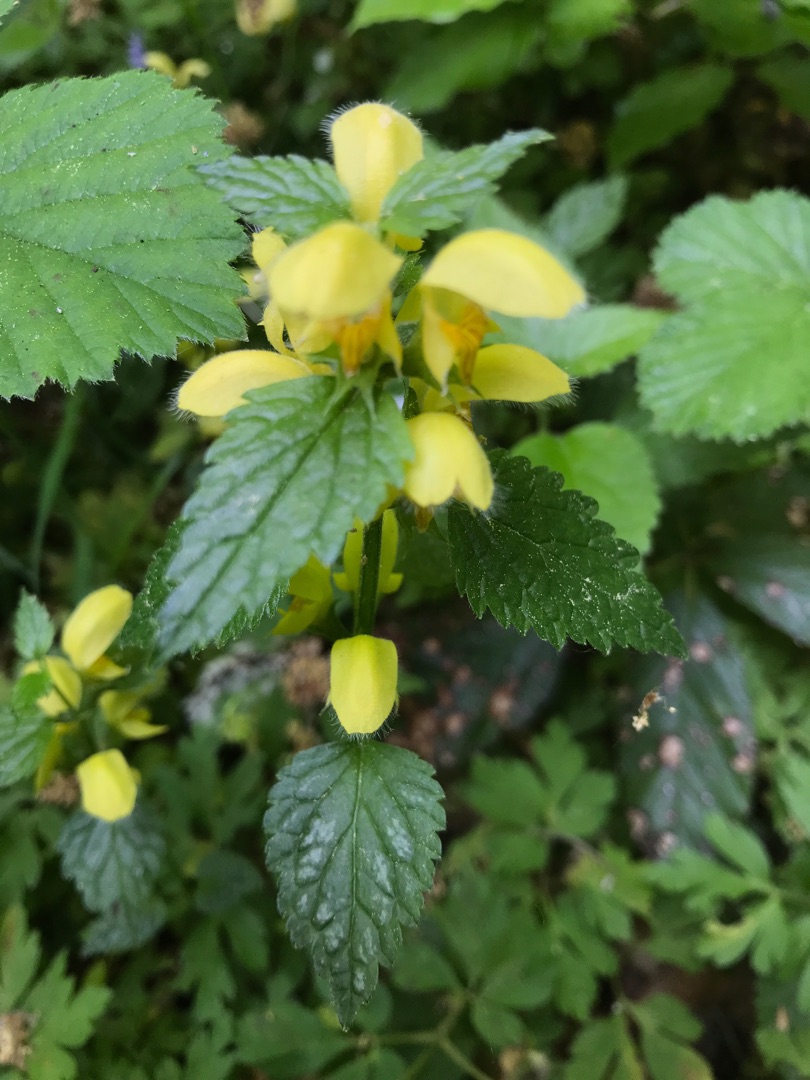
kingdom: Plantae
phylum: Tracheophyta
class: Magnoliopsida
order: Lamiales
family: Lamiaceae
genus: Lamium
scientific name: Lamium galeobdolon
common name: Guldnælde
